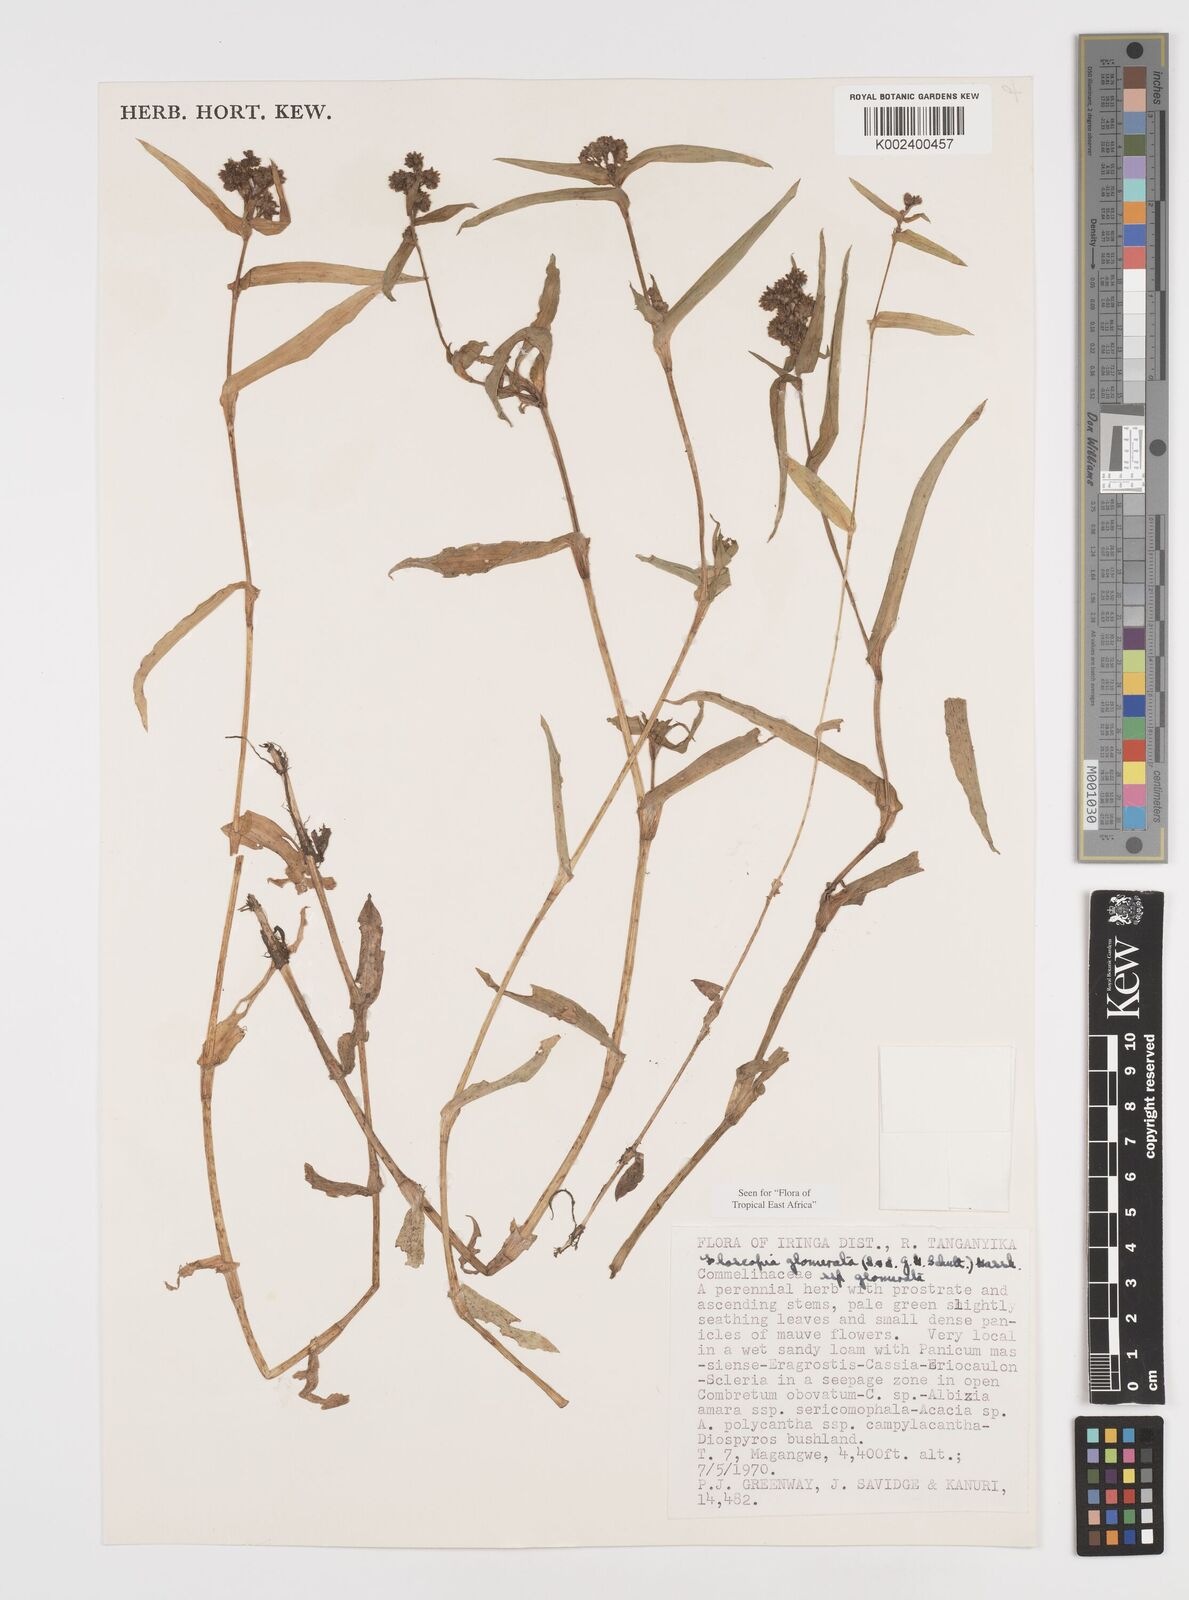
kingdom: Plantae
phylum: Tracheophyta
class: Liliopsida
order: Commelinales
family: Commelinaceae
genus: Floscopa
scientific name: Floscopa glomerata
